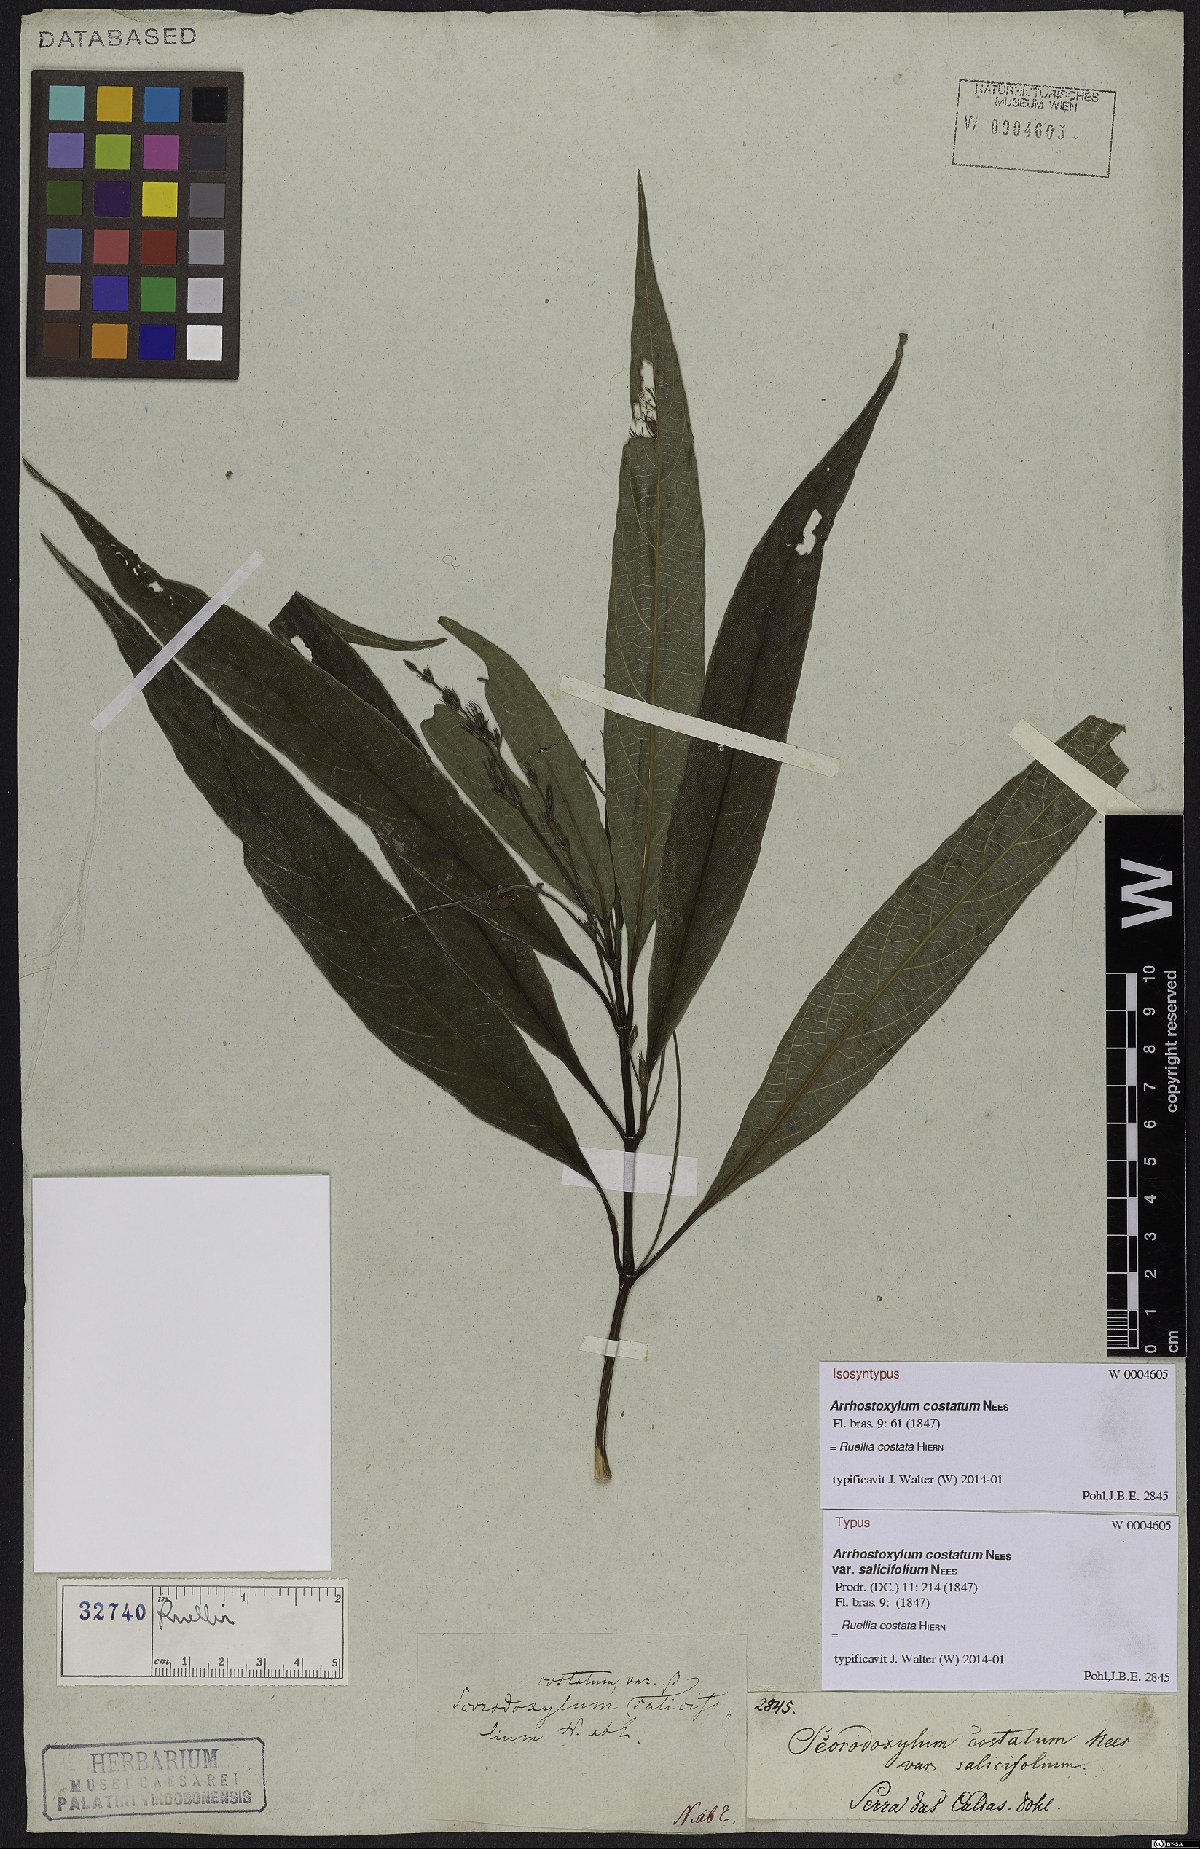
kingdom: Plantae
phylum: Tracheophyta
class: Magnoliopsida
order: Lamiales
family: Acanthaceae
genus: Ruellia
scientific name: Ruellia costata
